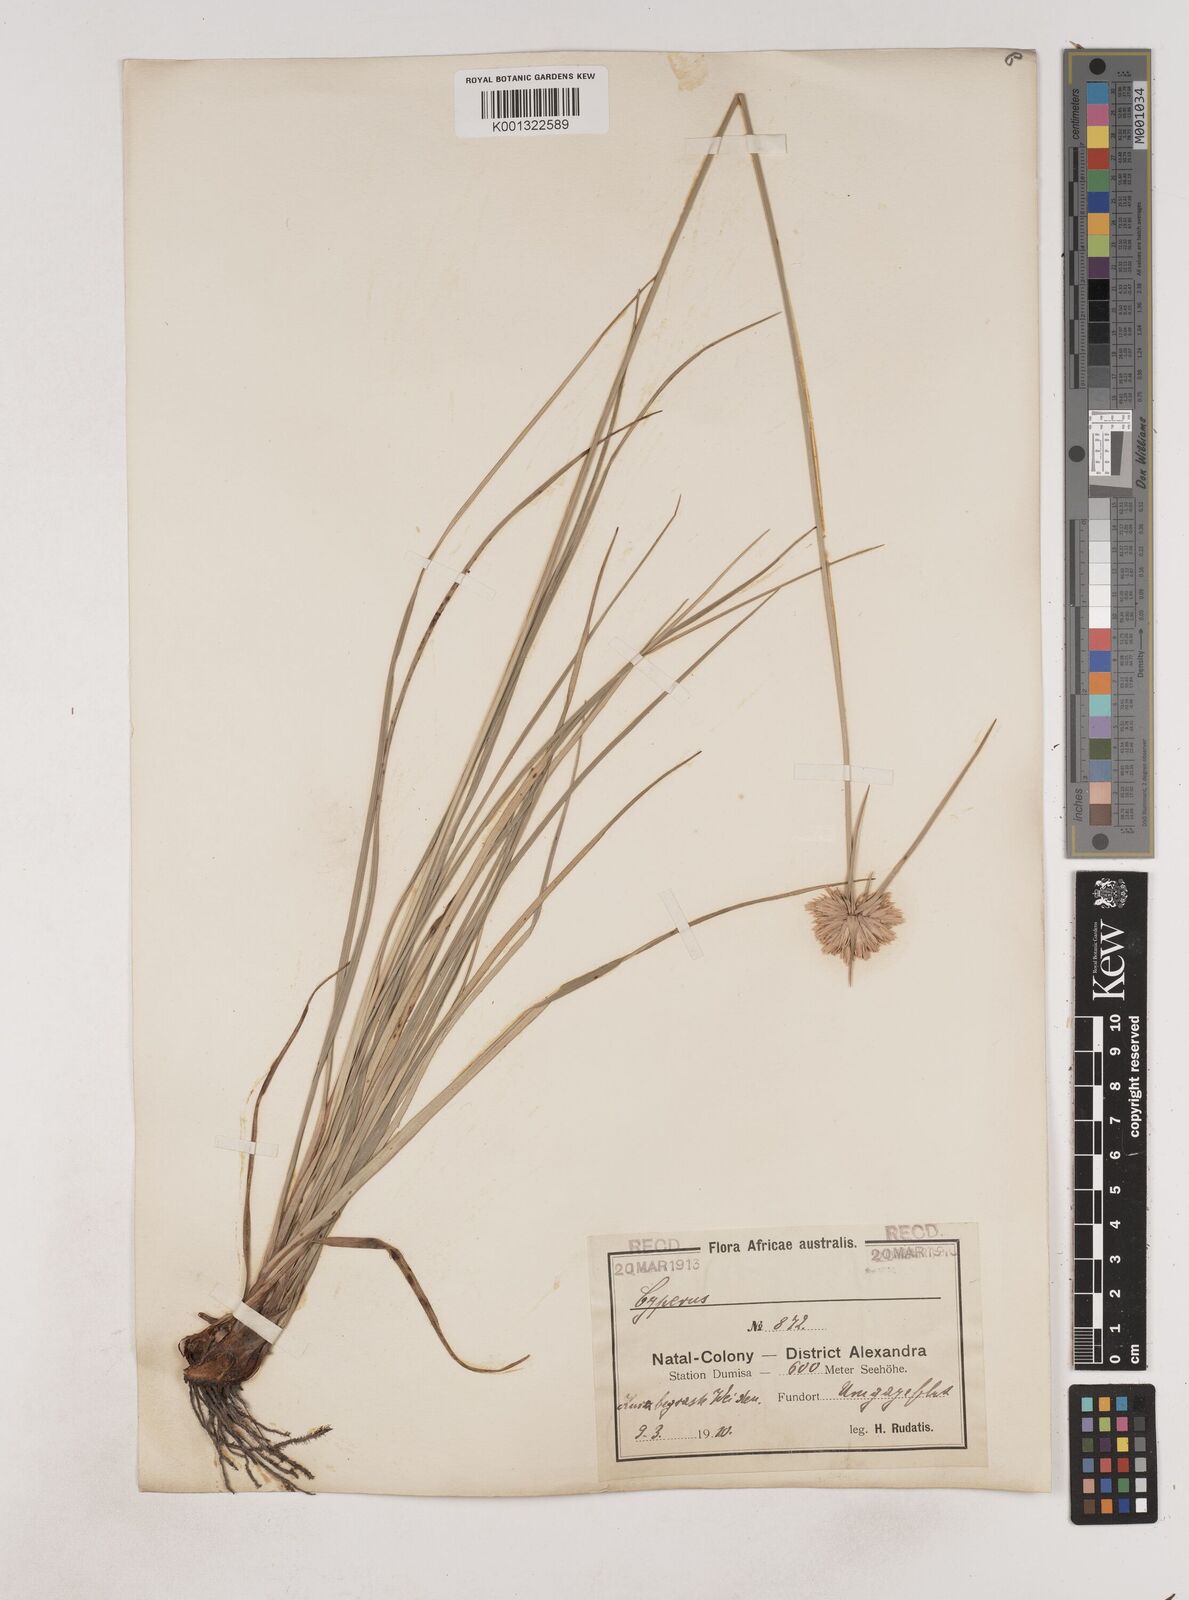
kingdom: Plantae
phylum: Tracheophyta
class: Liliopsida
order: Poales
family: Cyperaceae
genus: Cyperus
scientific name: Cyperus niveus
